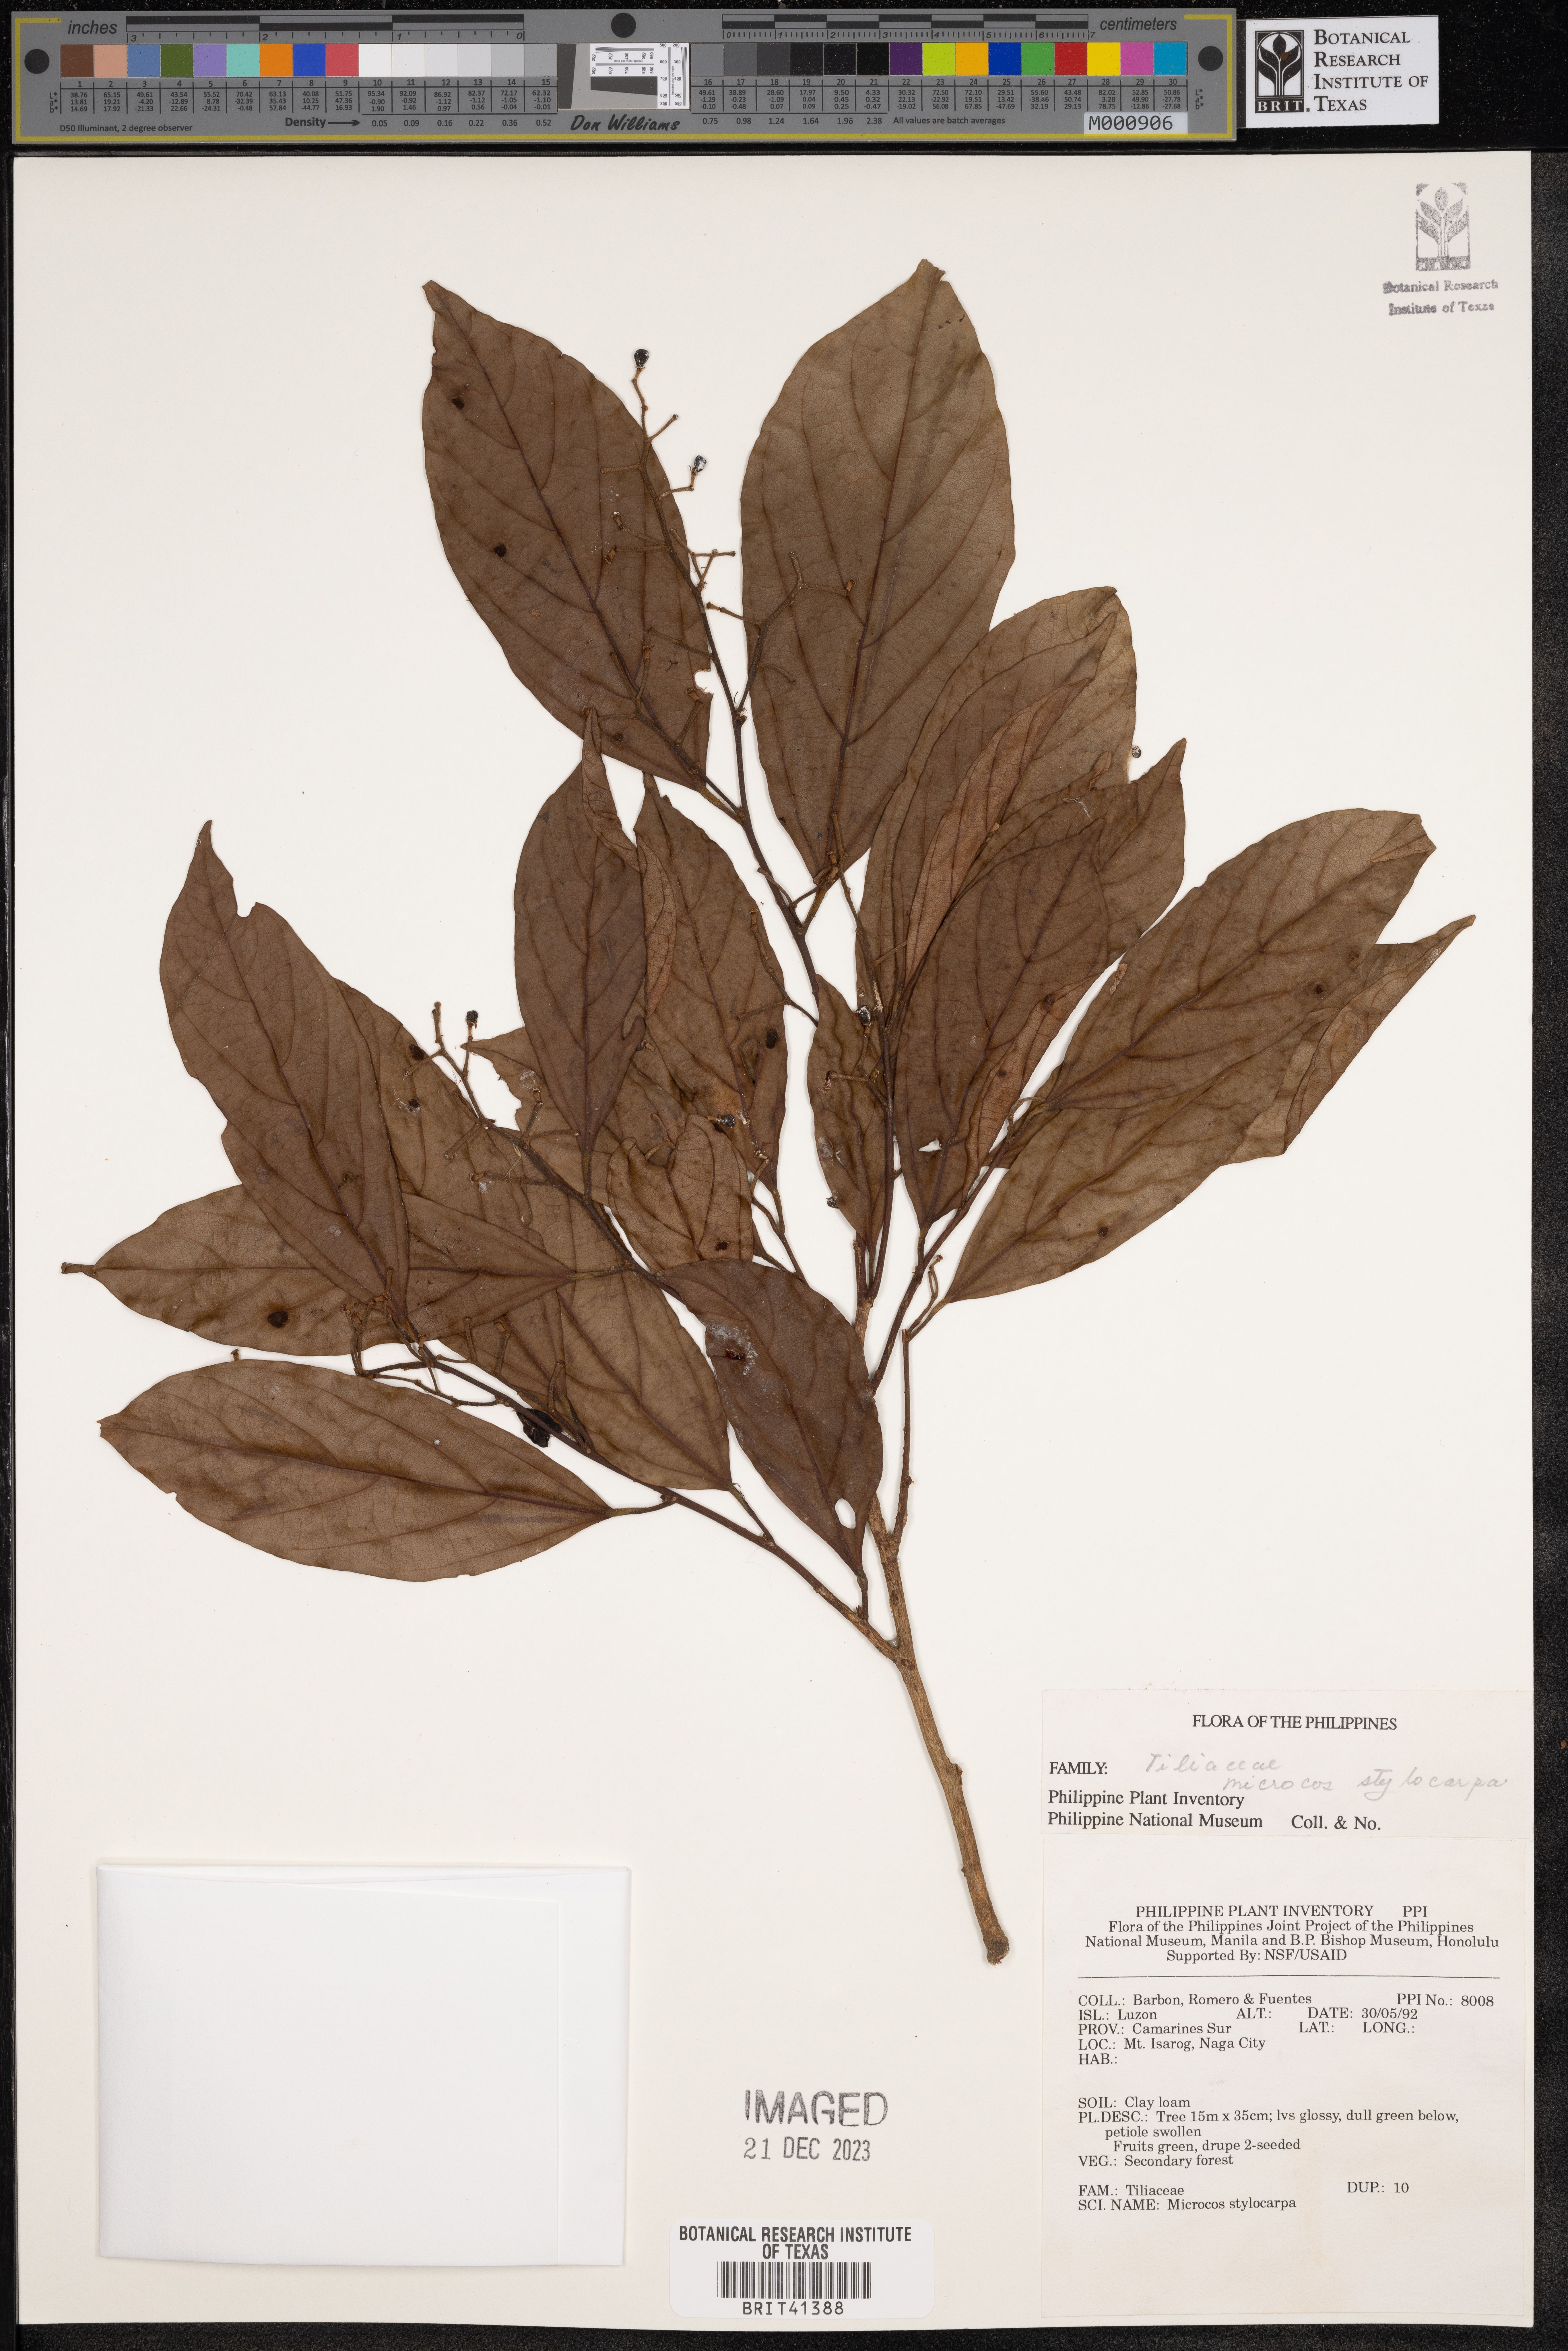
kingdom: Plantae
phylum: Tracheophyta
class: Magnoliopsida
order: Malvales
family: Malvaceae
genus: Microcos
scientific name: Microcos triflora
